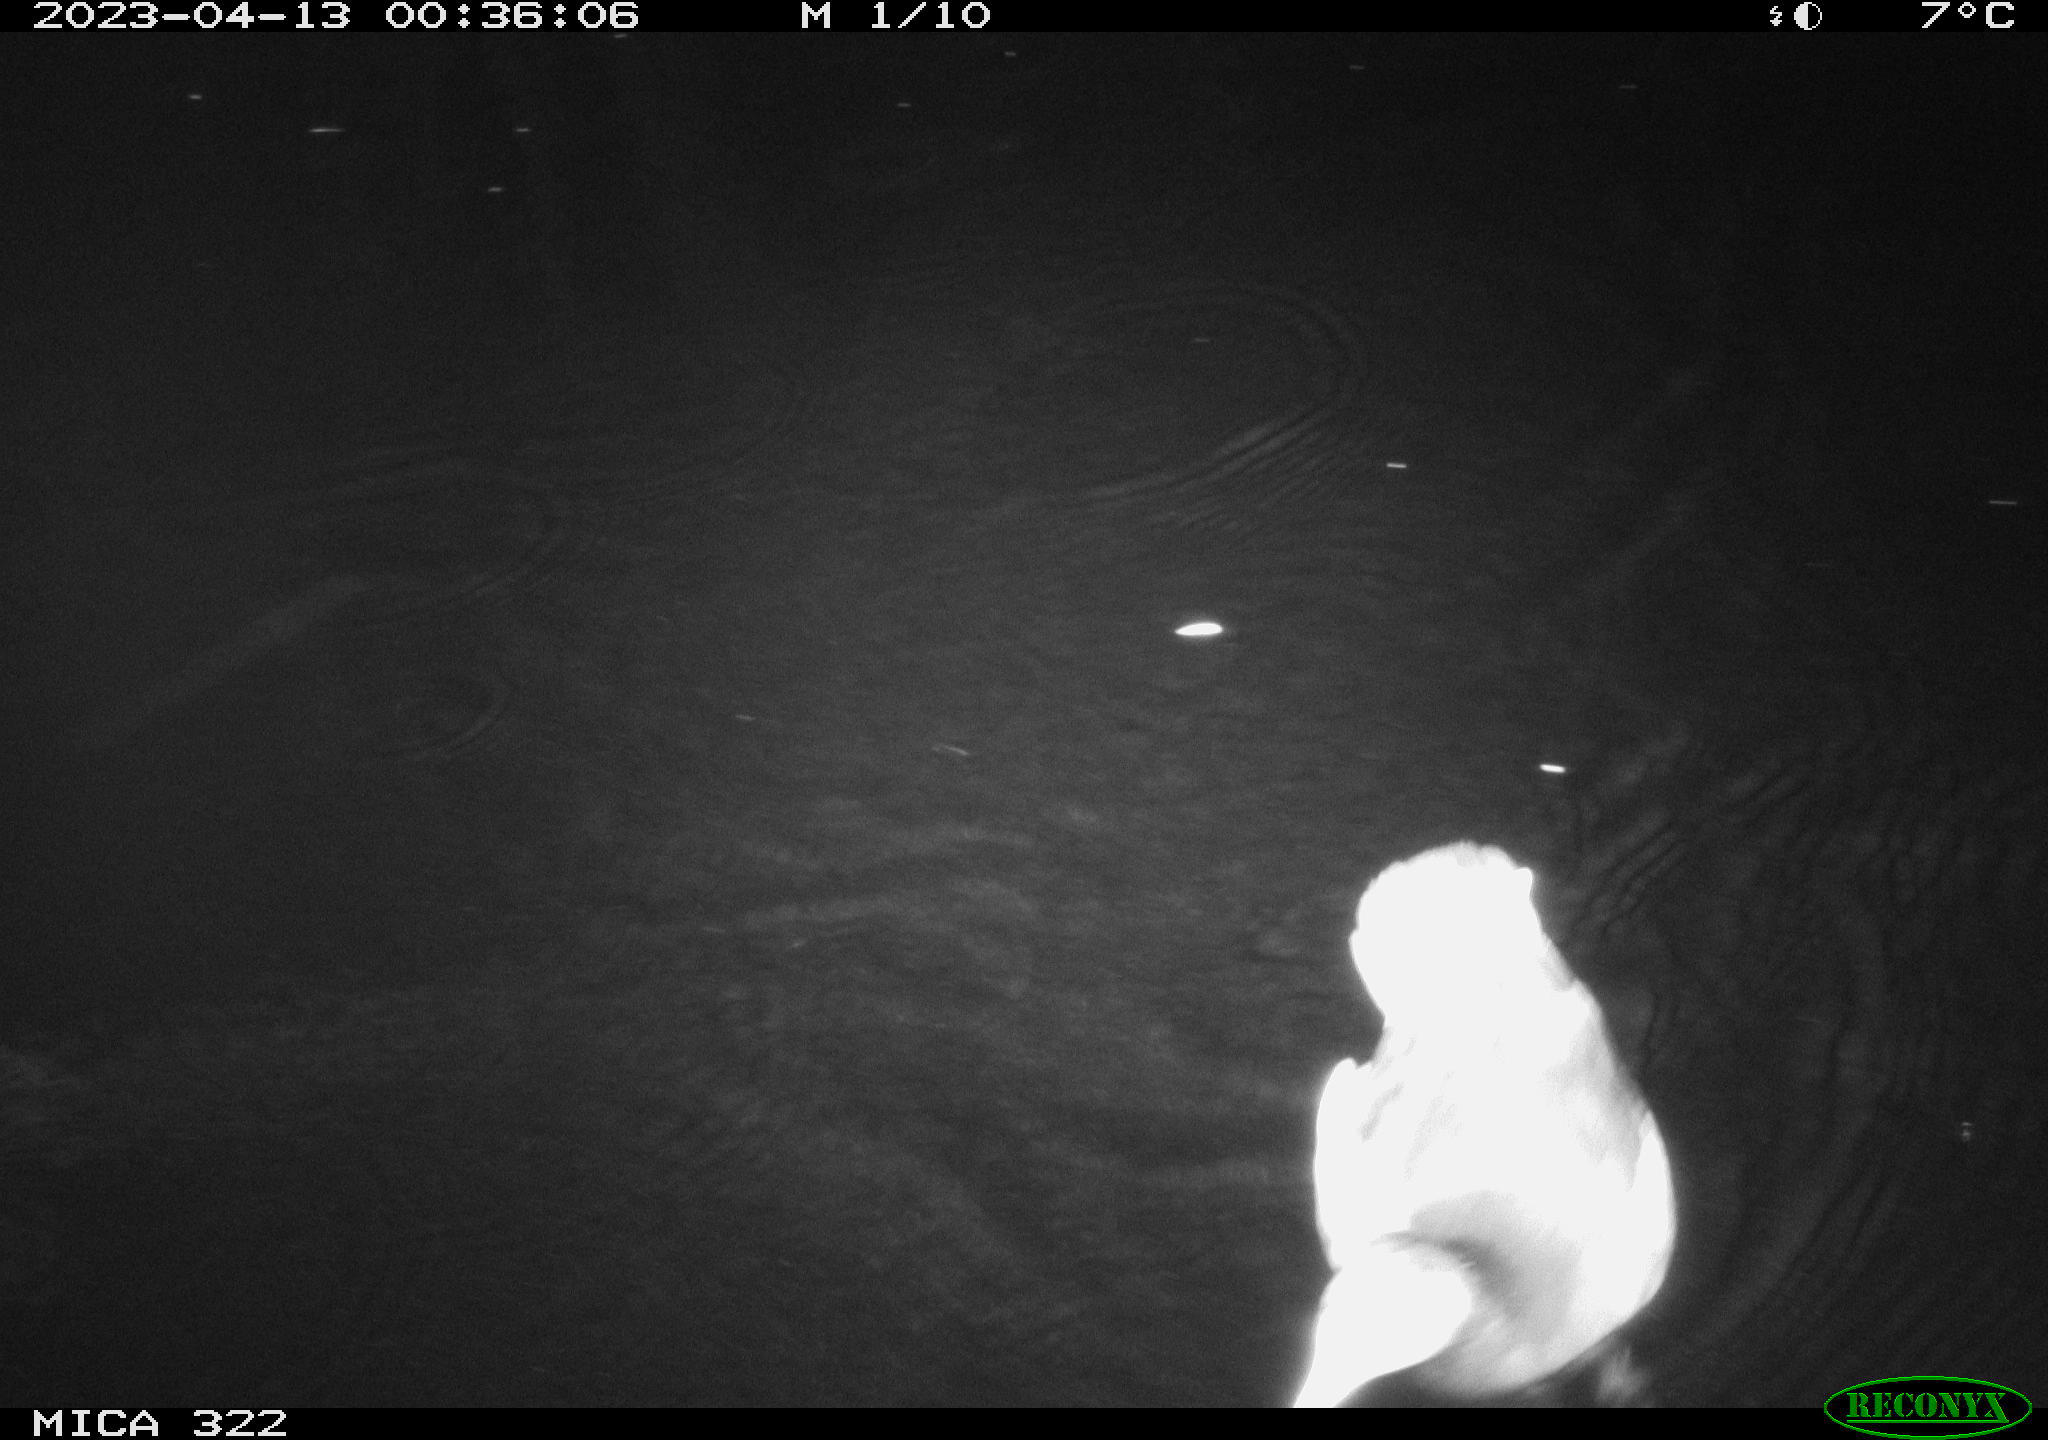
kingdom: Animalia
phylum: Chordata
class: Aves
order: Anseriformes
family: Anatidae
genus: Anas
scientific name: Anas
